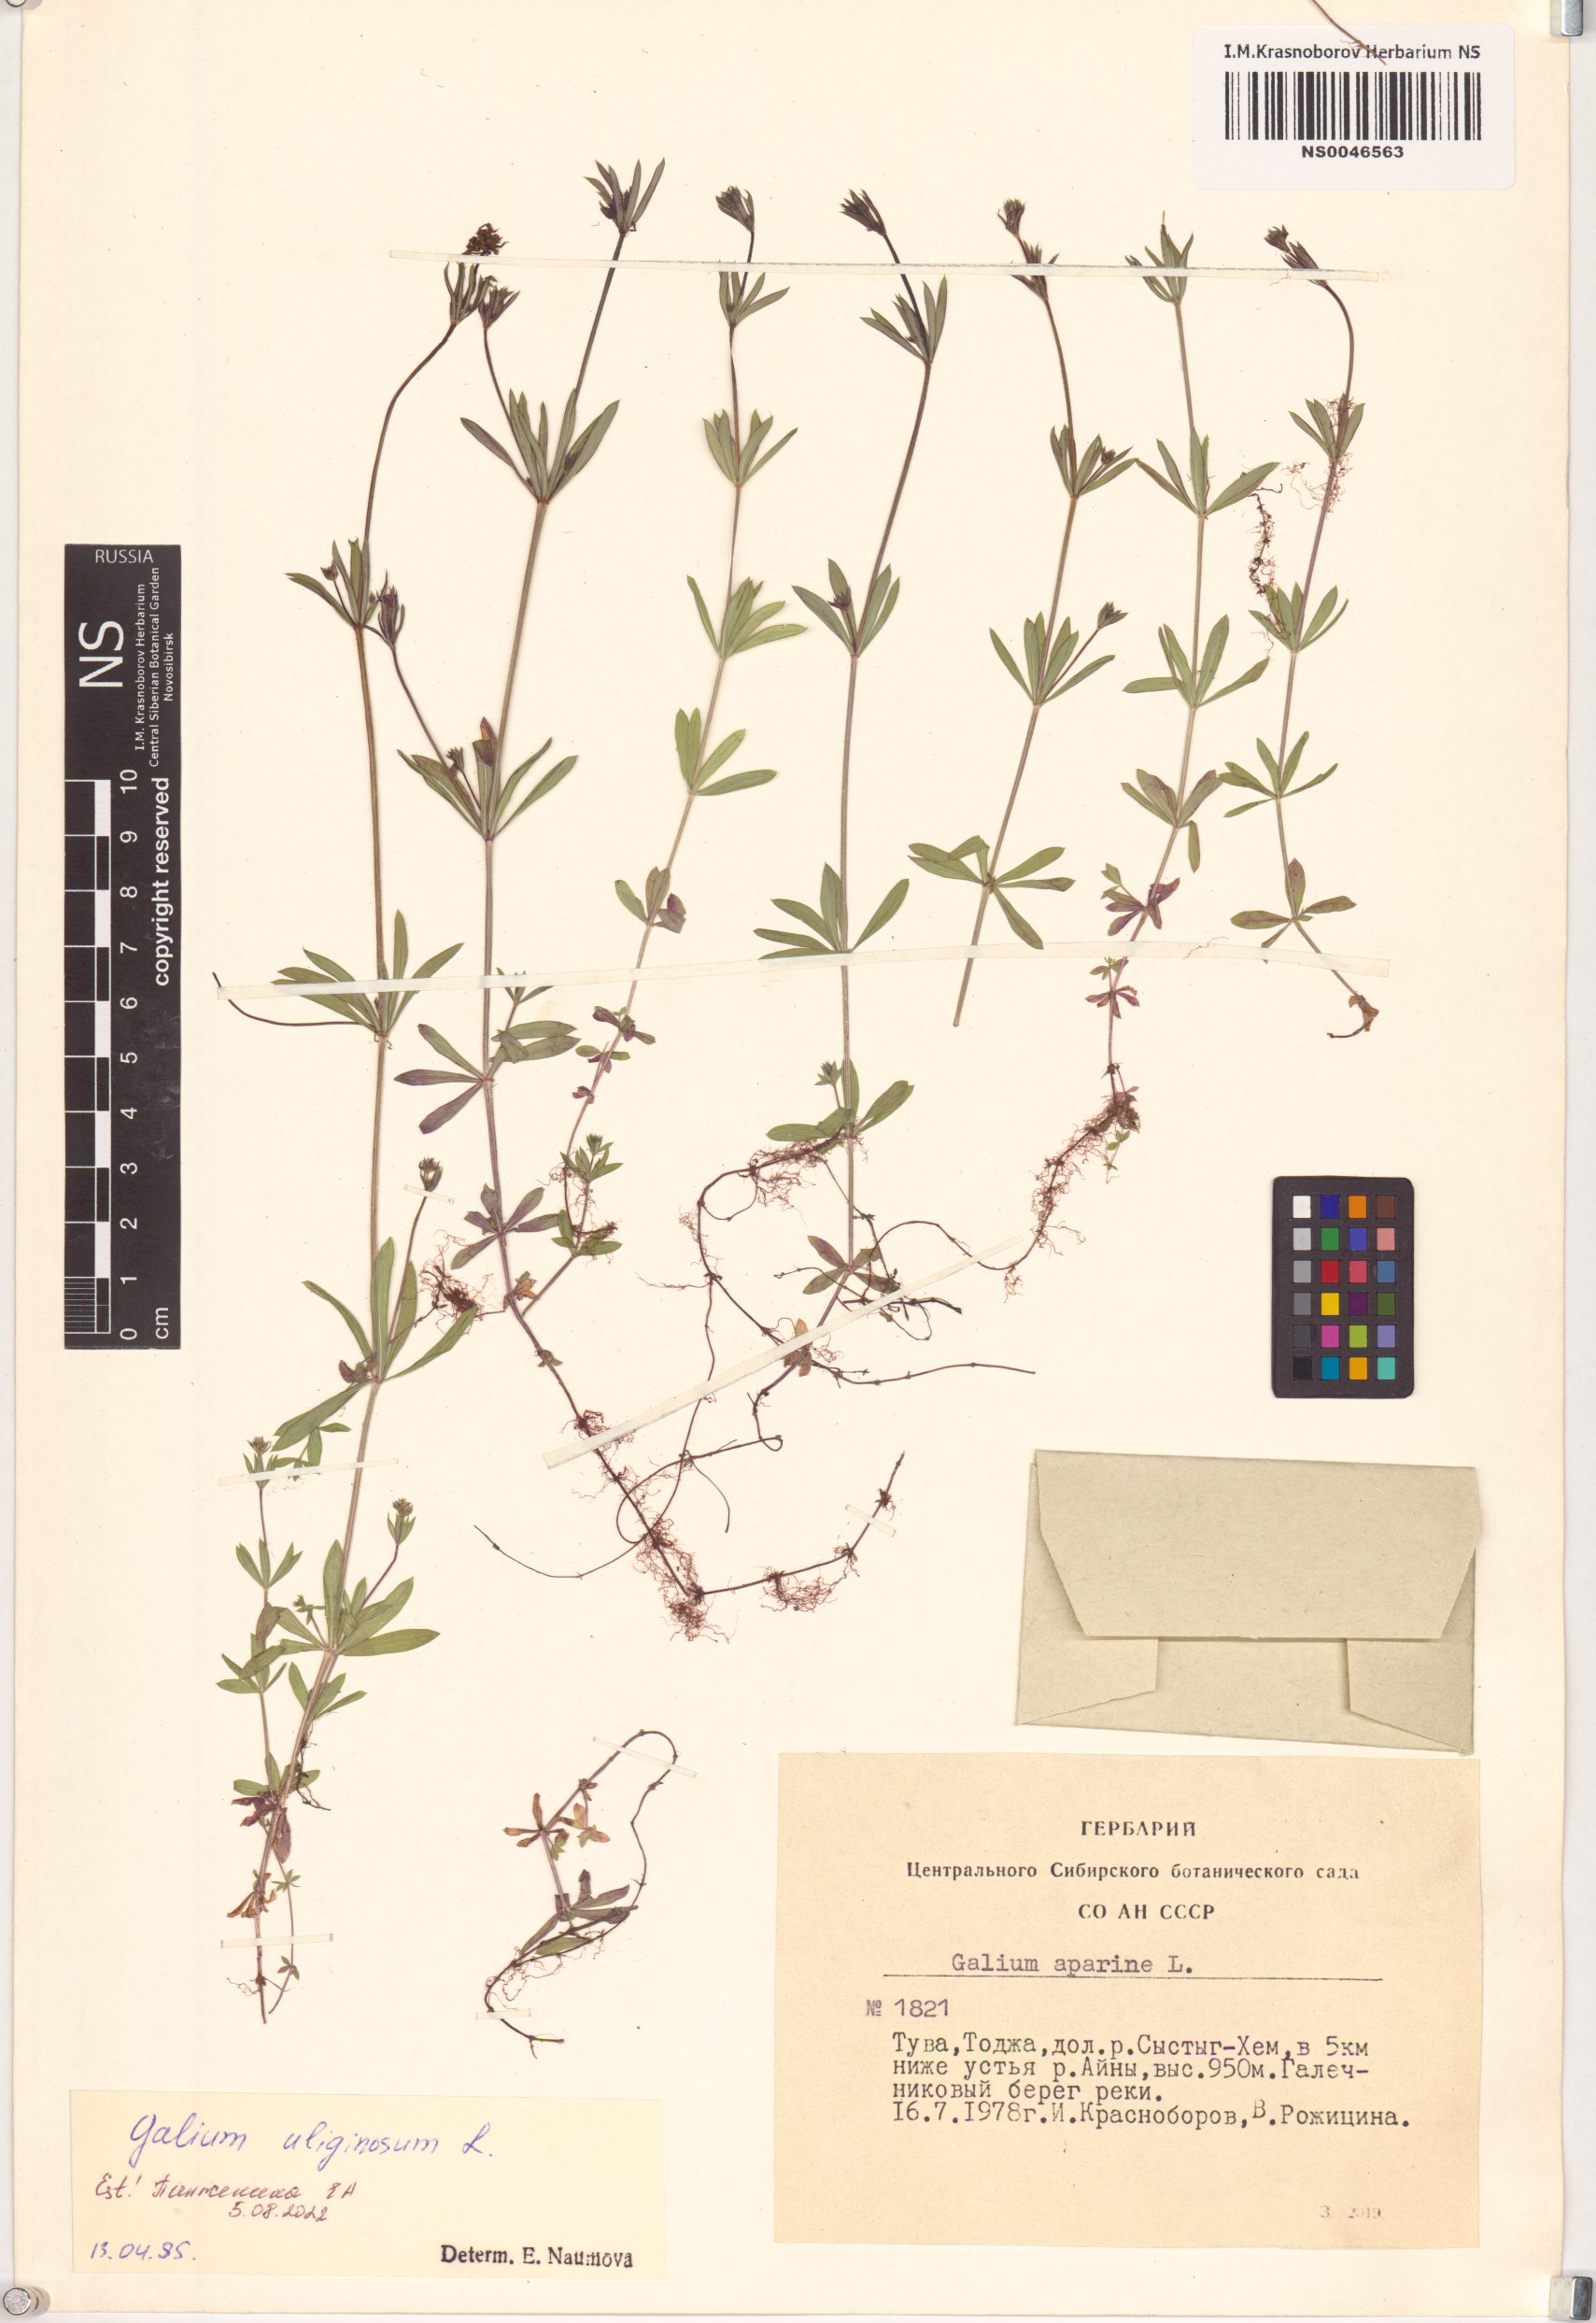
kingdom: Plantae
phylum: Tracheophyta
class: Magnoliopsida
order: Gentianales
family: Rubiaceae
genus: Galium
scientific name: Galium uliginosum
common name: Fen bedstraw
